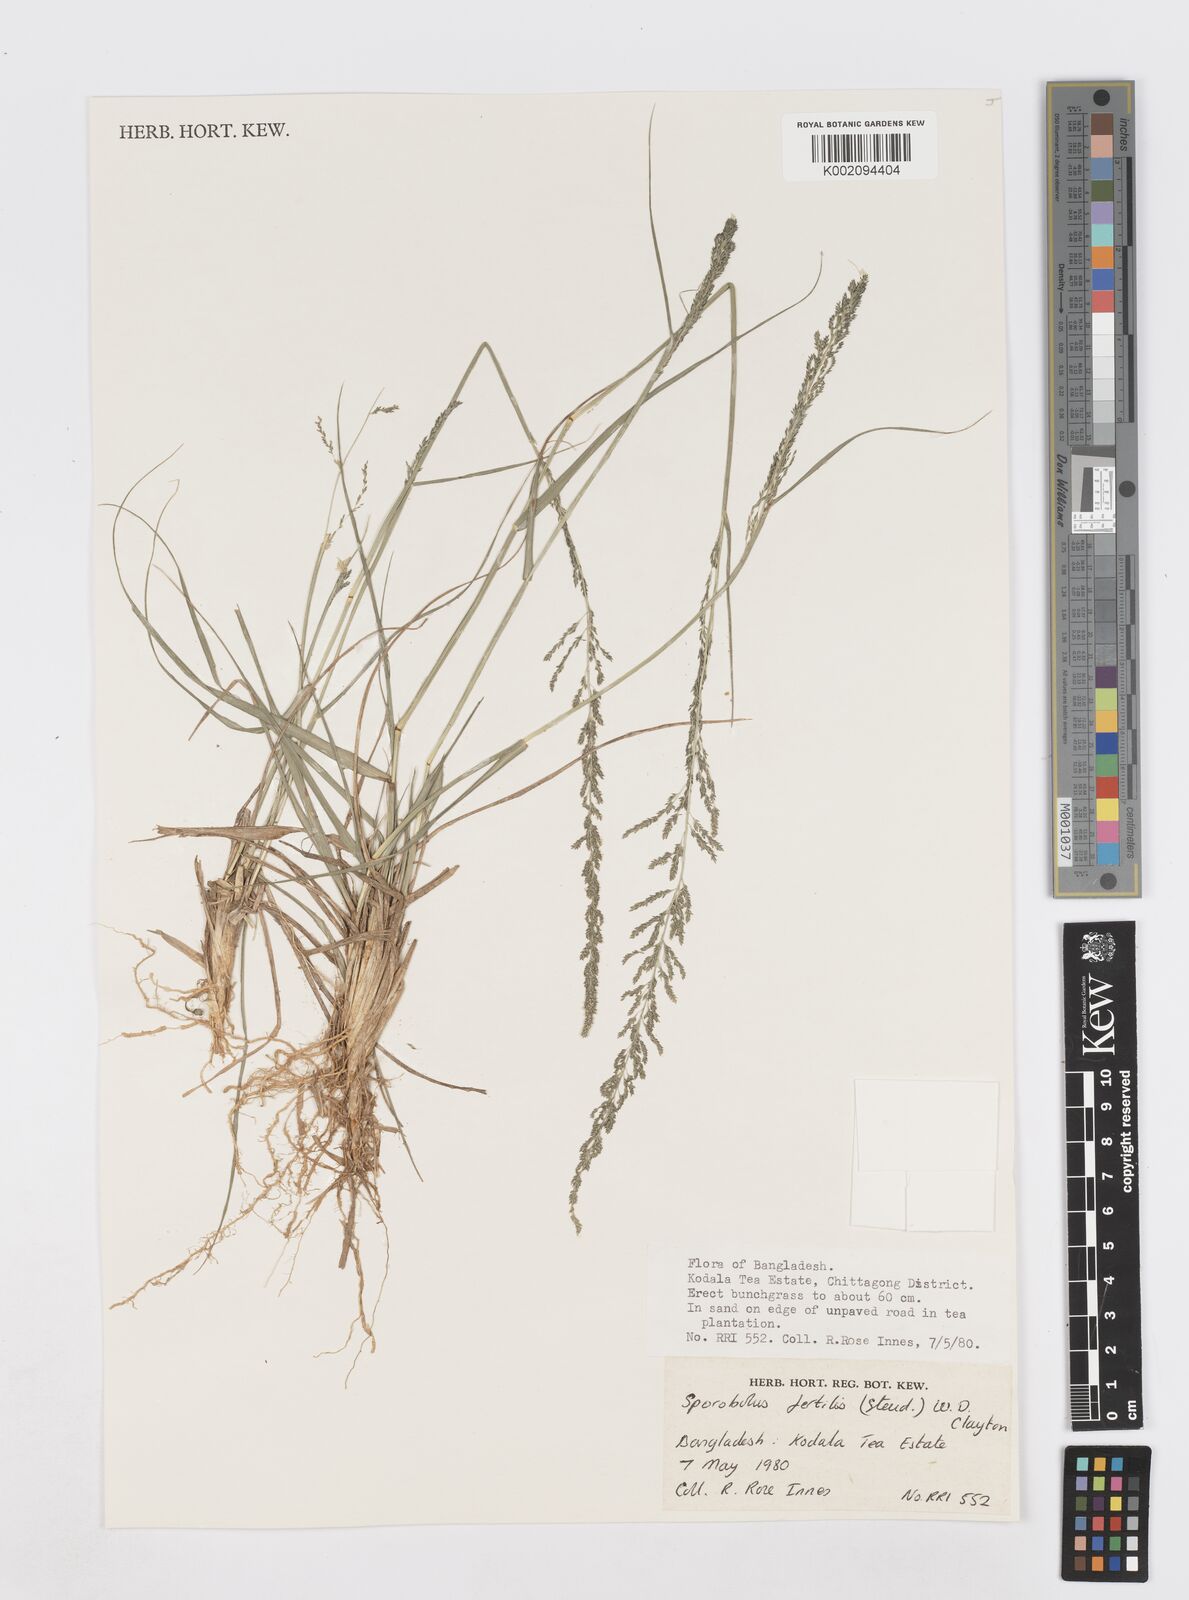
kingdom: Plantae
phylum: Tracheophyta
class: Liliopsida
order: Poales
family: Poaceae
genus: Sporobolus
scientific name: Sporobolus fertilis
